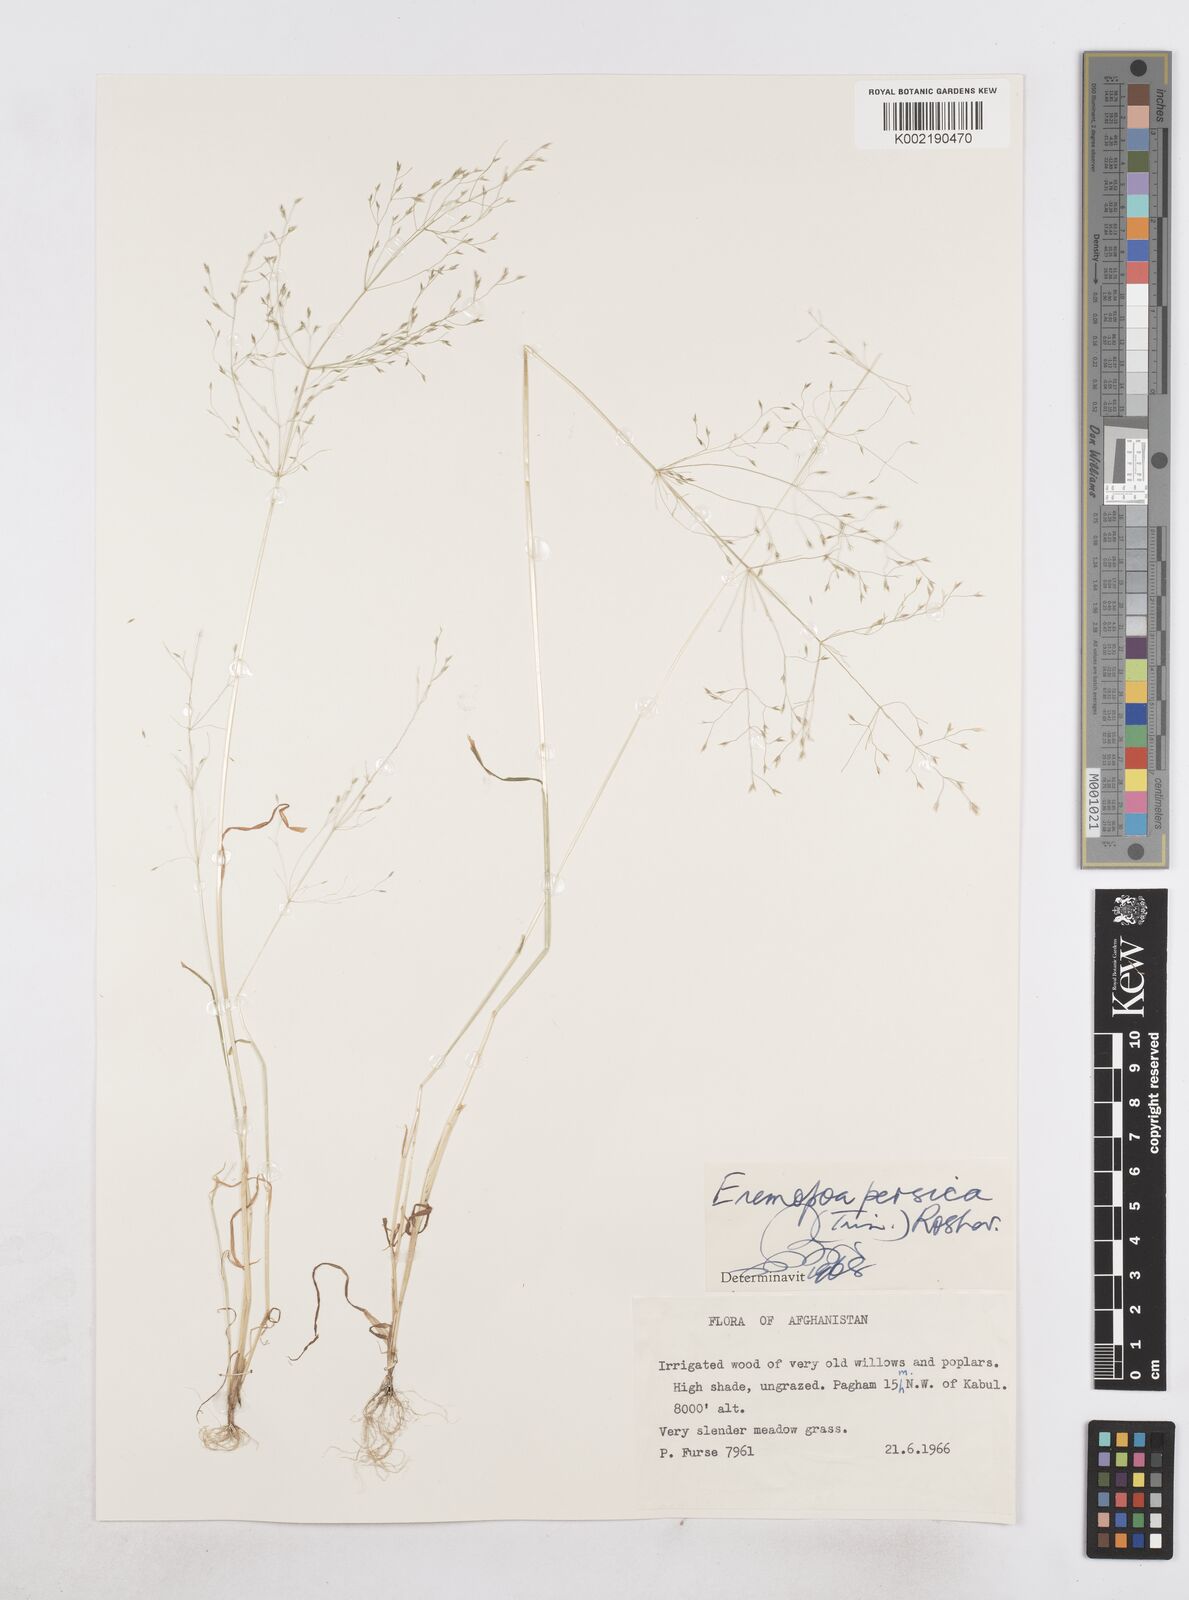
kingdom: Plantae
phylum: Tracheophyta
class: Liliopsida
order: Poales
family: Poaceae
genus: Poa
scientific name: Poa diaphora
